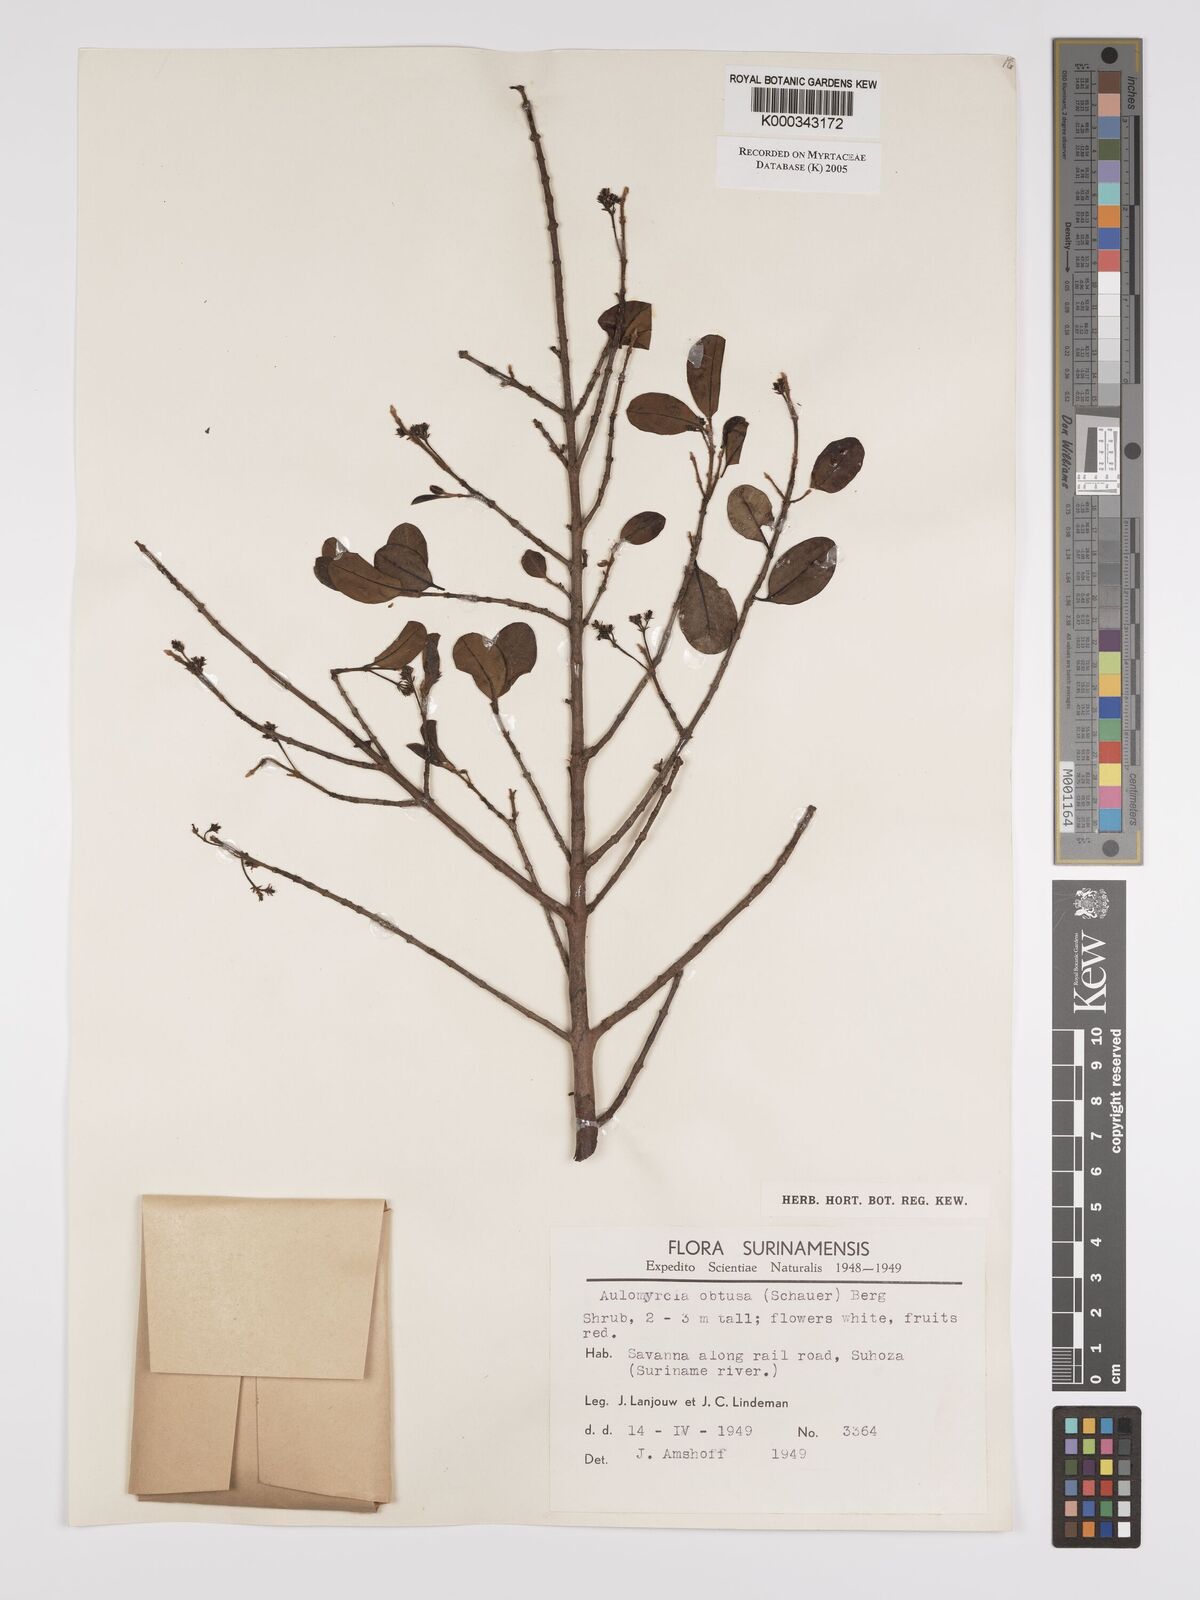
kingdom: Plantae
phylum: Tracheophyta
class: Magnoliopsida
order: Myrtales
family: Myrtaceae
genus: Myrcia
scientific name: Myrcia guianensis
